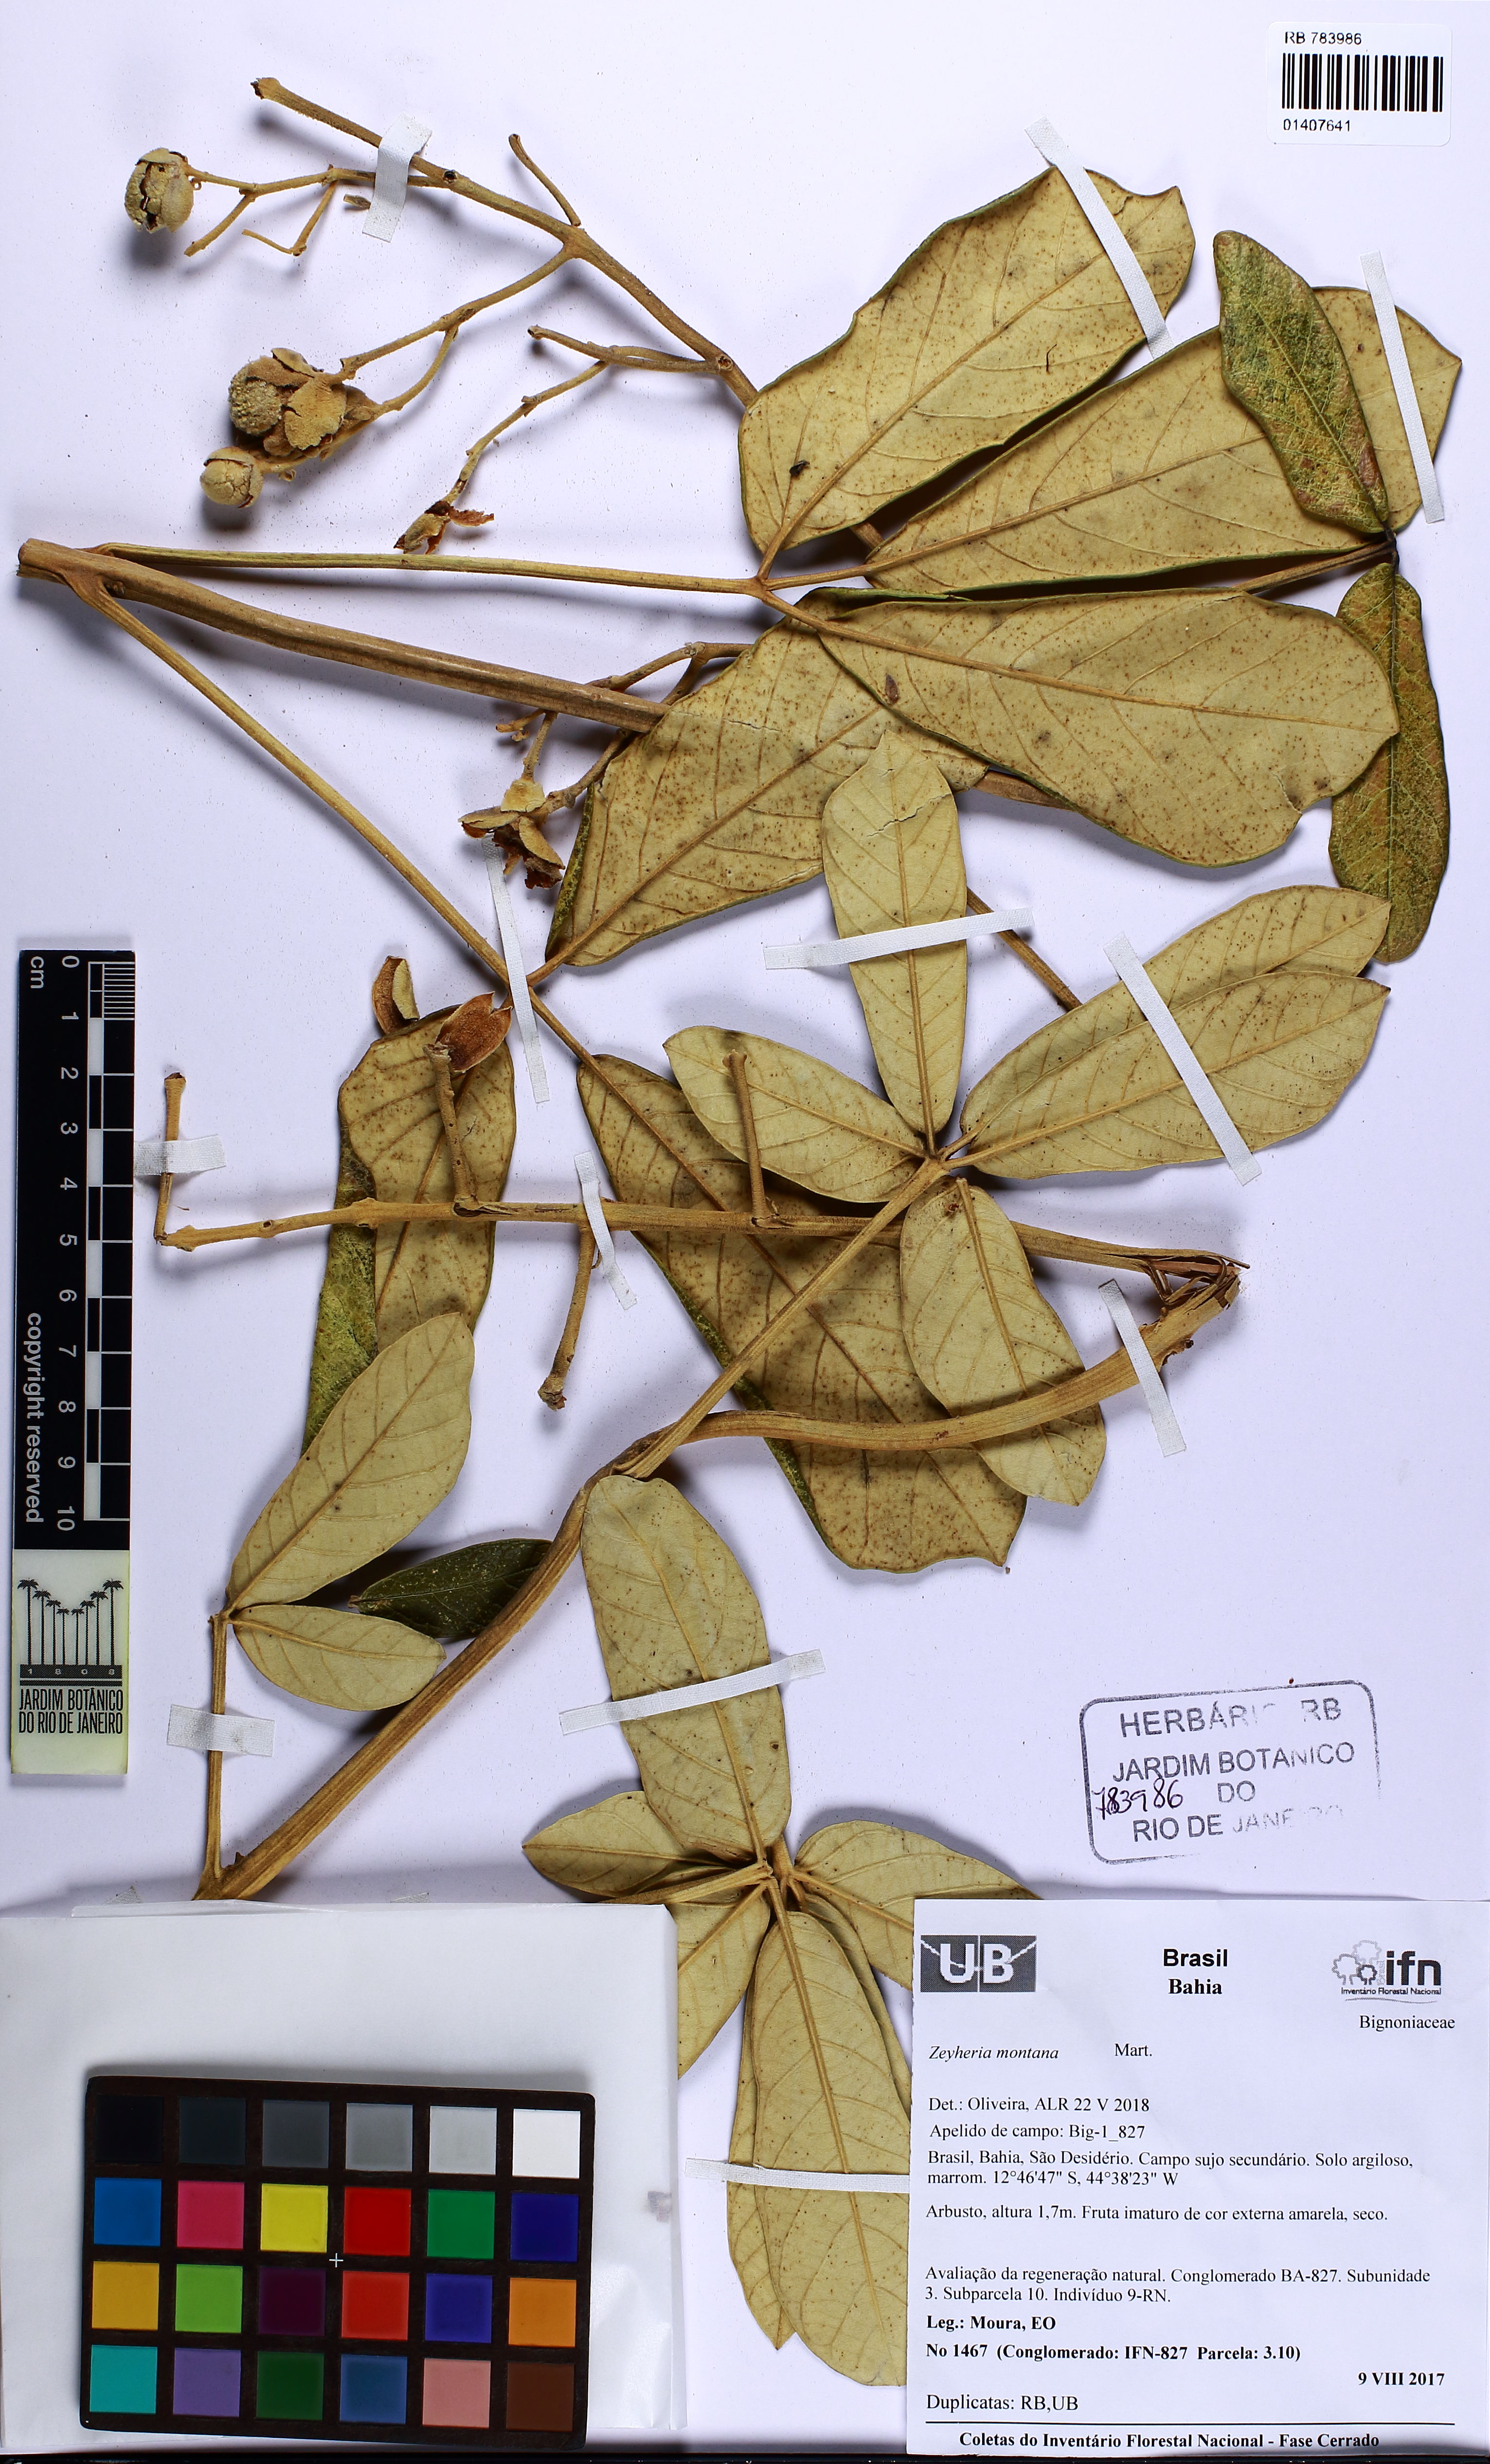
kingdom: Plantae
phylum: Tracheophyta
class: Magnoliopsida
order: Lamiales
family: Bignoniaceae
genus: Zeyheria
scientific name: Zeyheria montana
